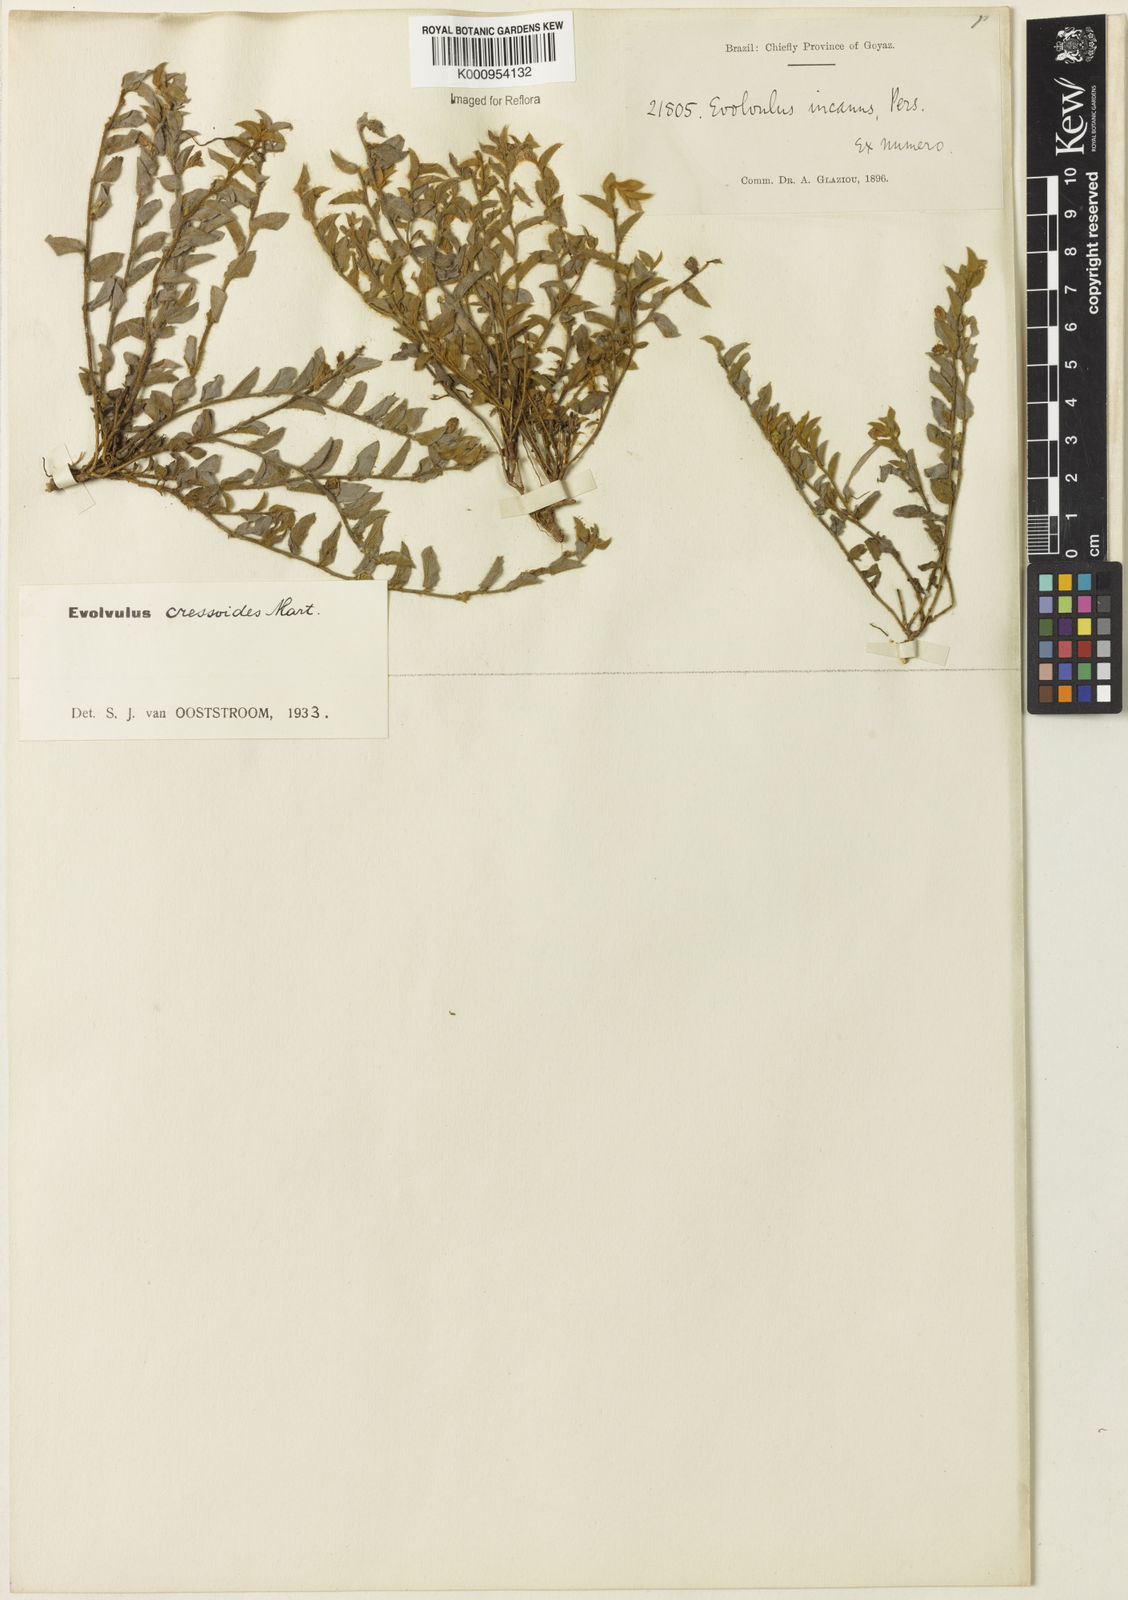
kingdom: Plantae
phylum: Tracheophyta
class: Magnoliopsida
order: Solanales
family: Convolvulaceae
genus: Evolvulus
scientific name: Evolvulus cressoides
